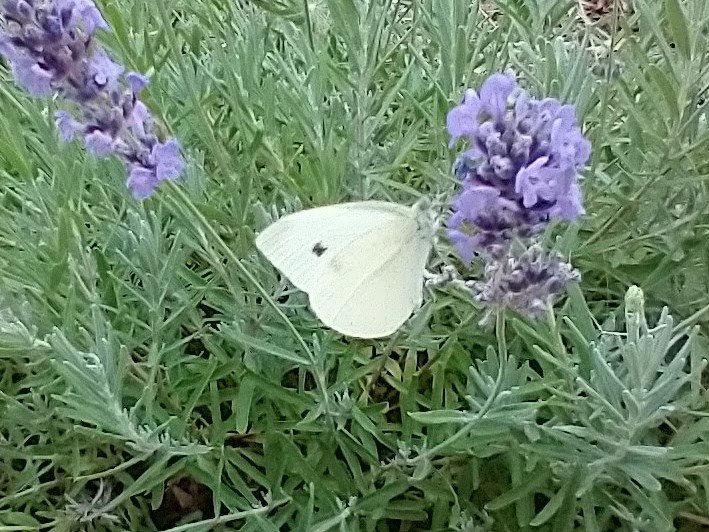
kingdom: Animalia
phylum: Arthropoda
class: Insecta
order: Lepidoptera
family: Pieridae
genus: Pieris
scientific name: Pieris rapae
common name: Cabbage White
